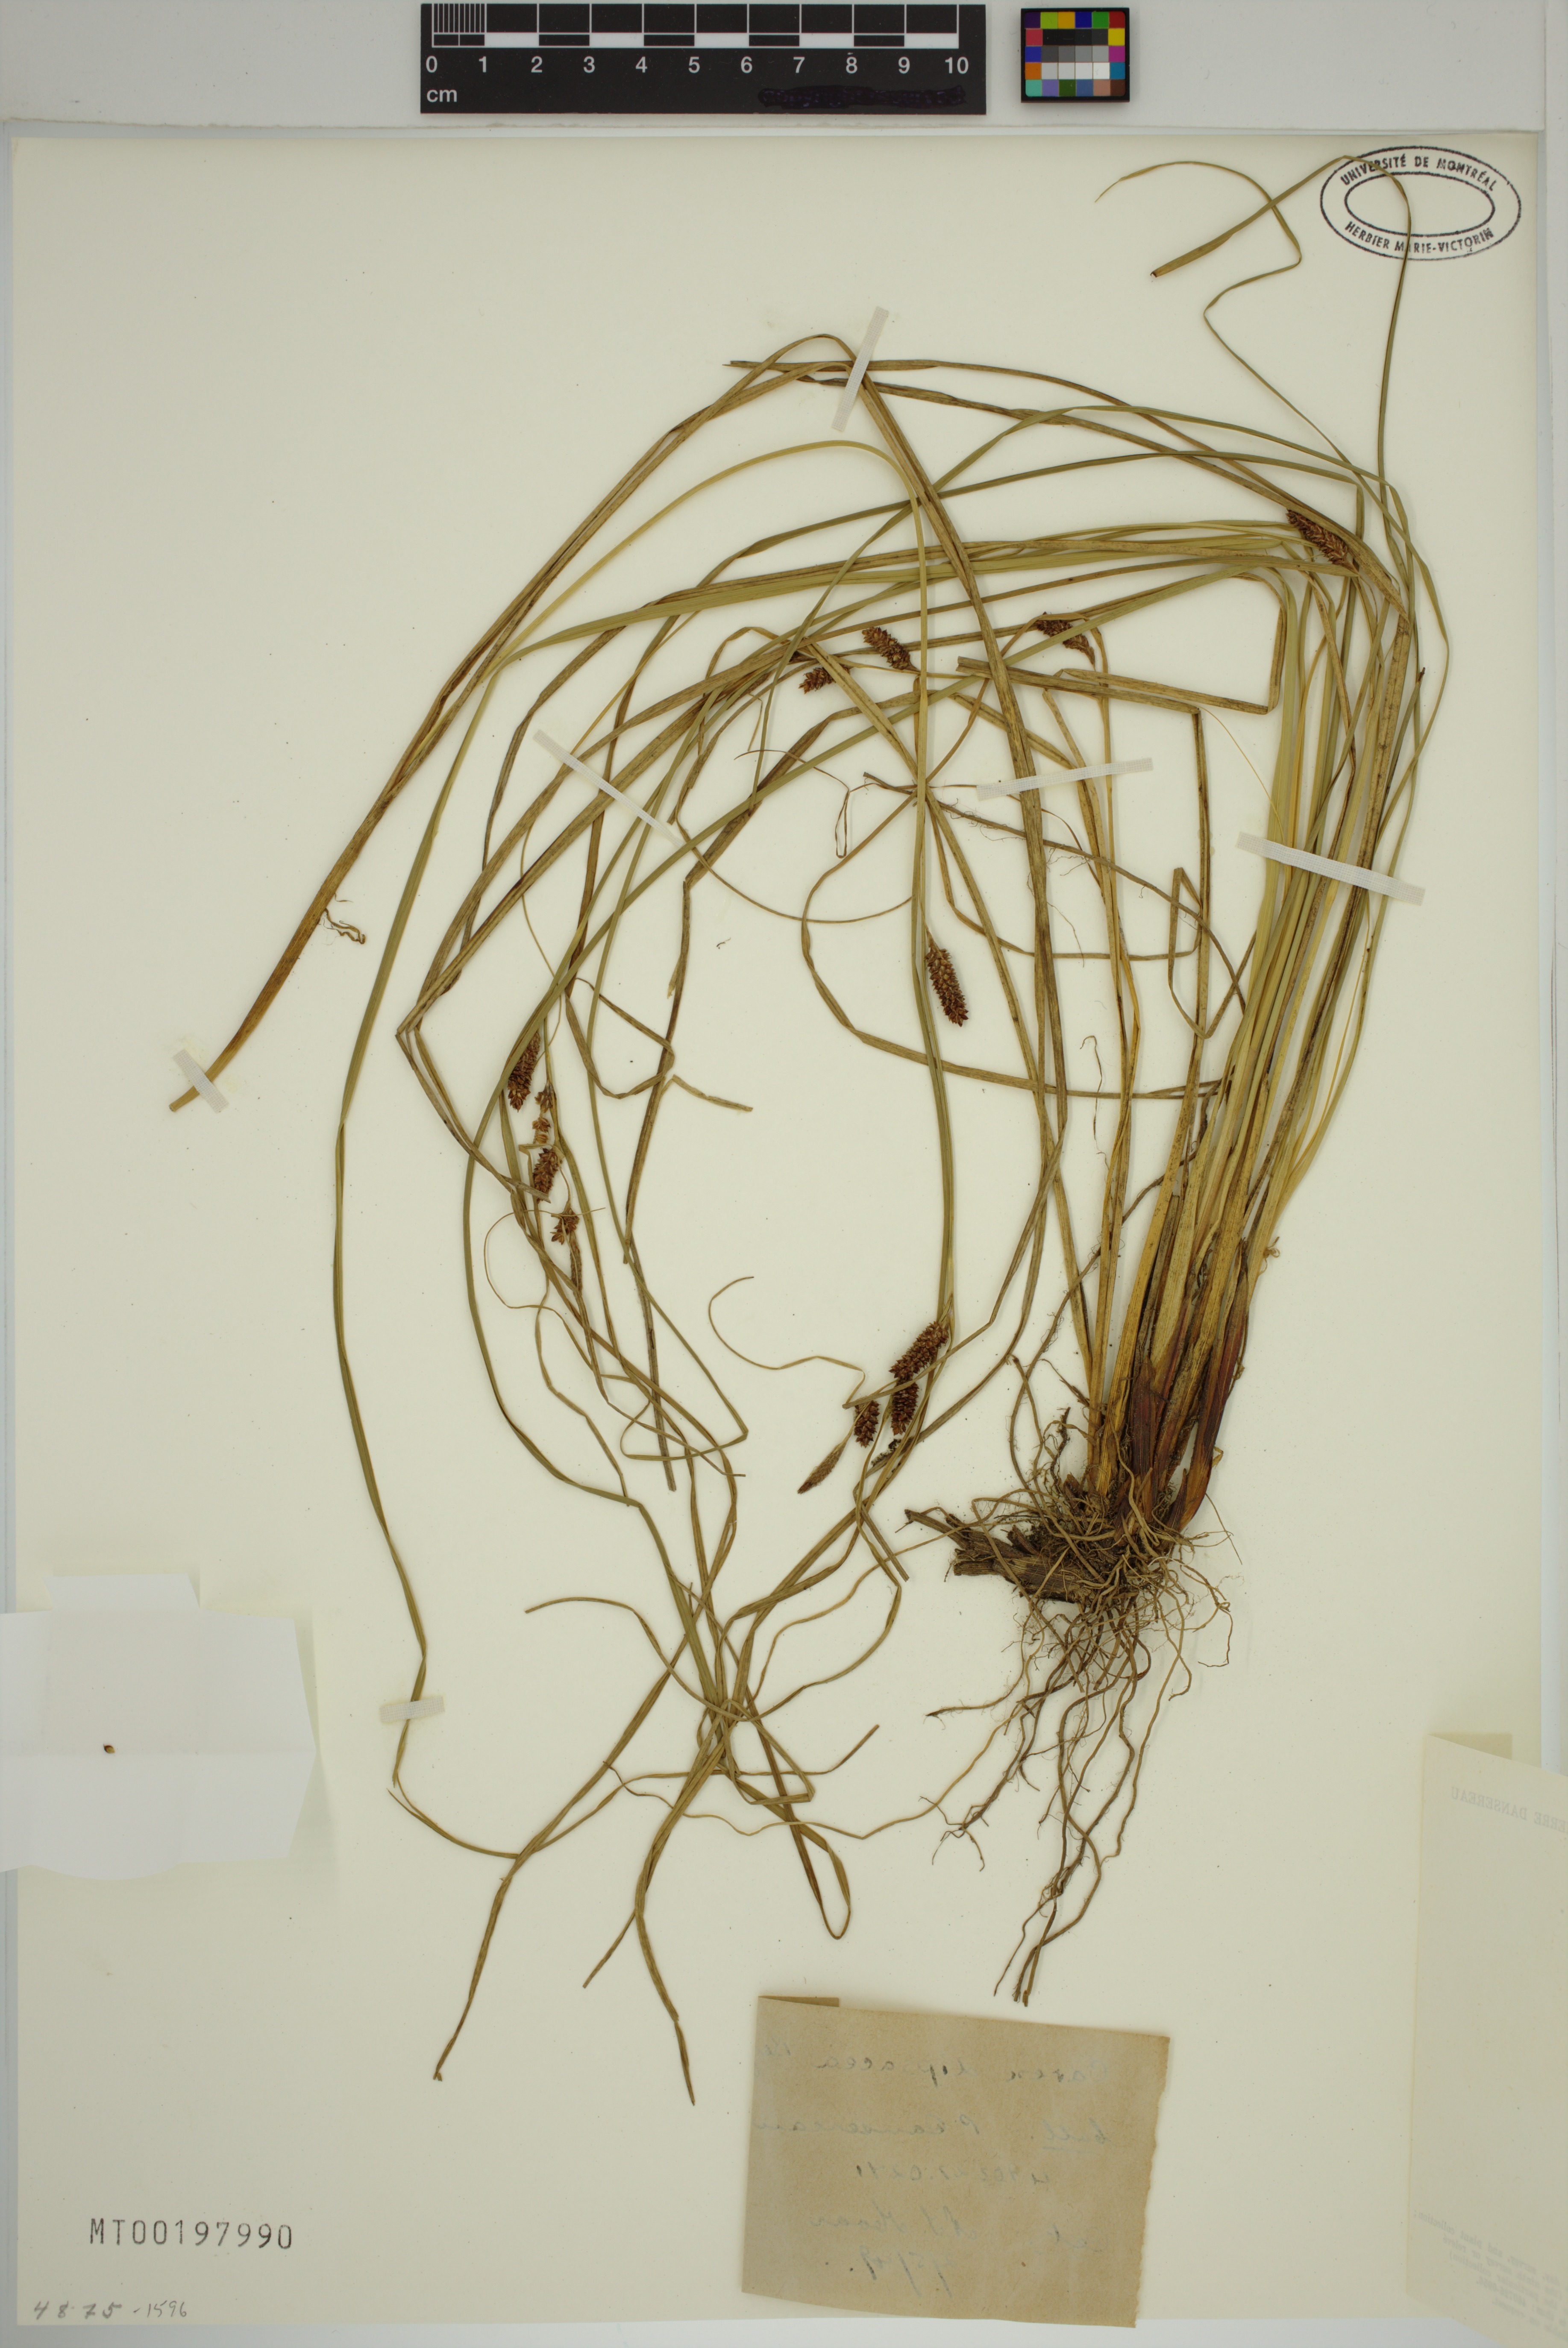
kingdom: Plantae
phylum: Tracheophyta
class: Liliopsida
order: Poales
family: Cyperaceae
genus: Carex
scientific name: Carex dipsacea
